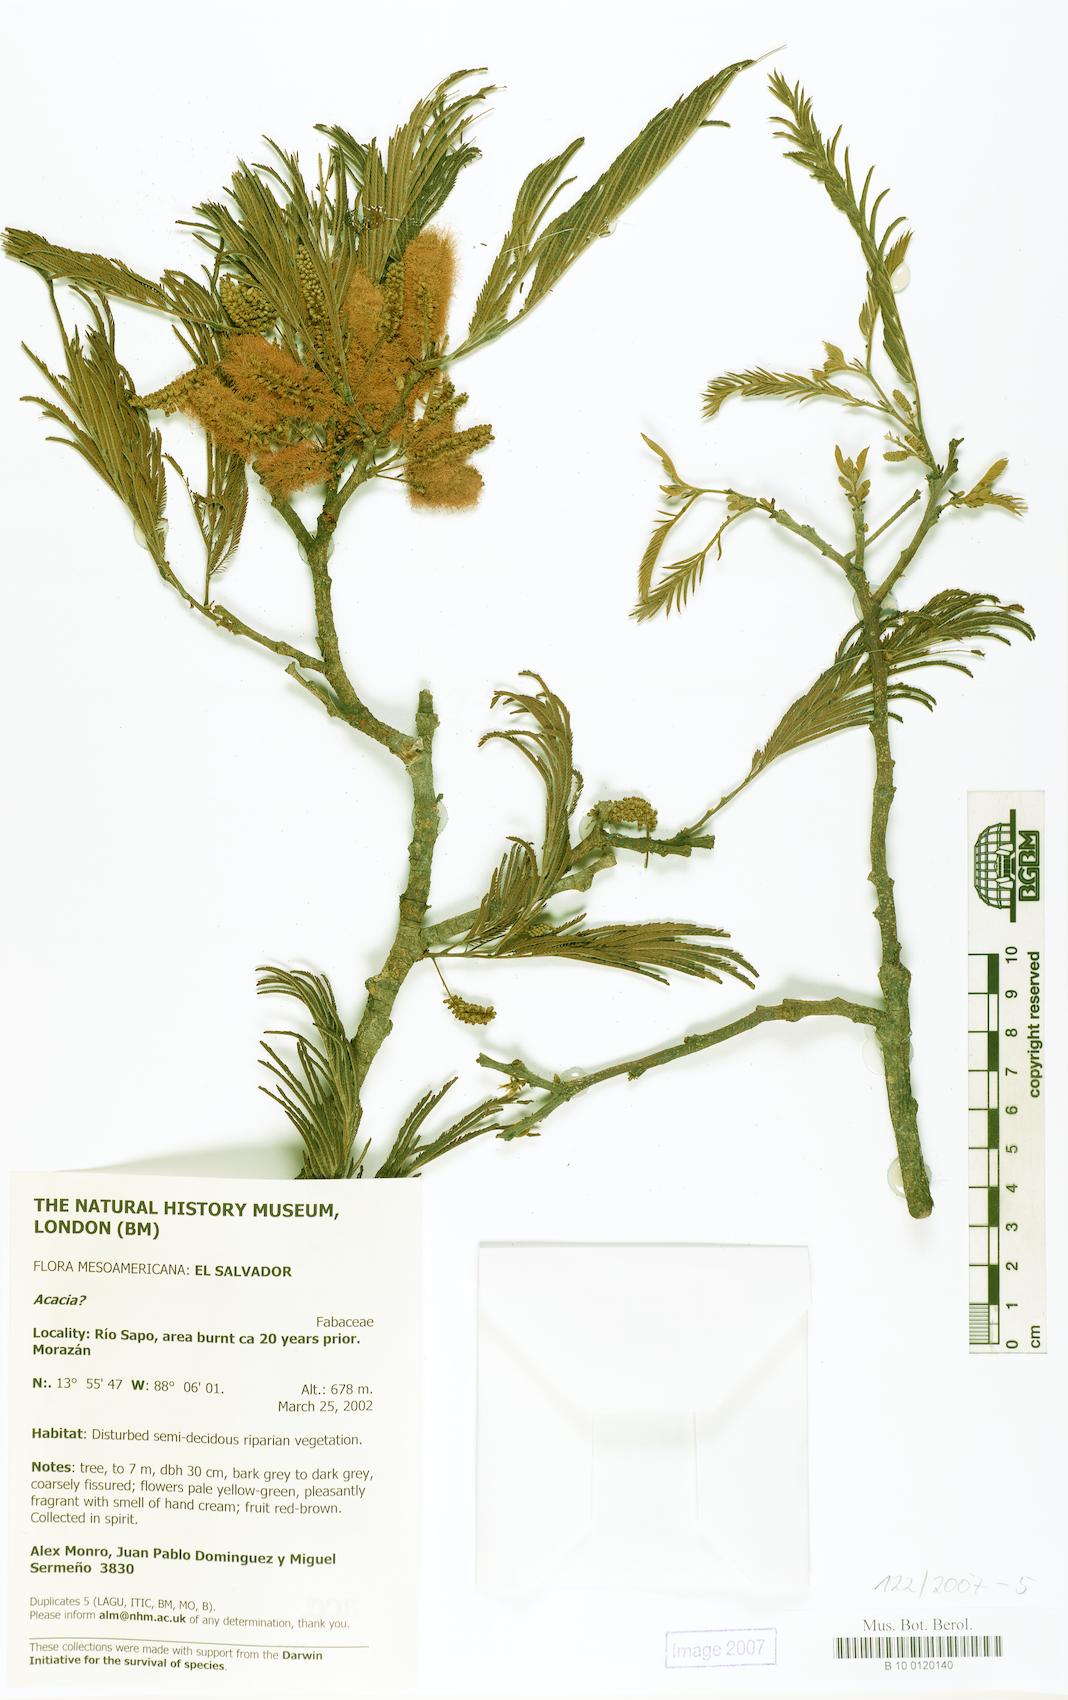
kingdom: Plantae
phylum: Tracheophyta
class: Magnoliopsida
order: Fabales
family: Fabaceae
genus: Acacia
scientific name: Acacia
